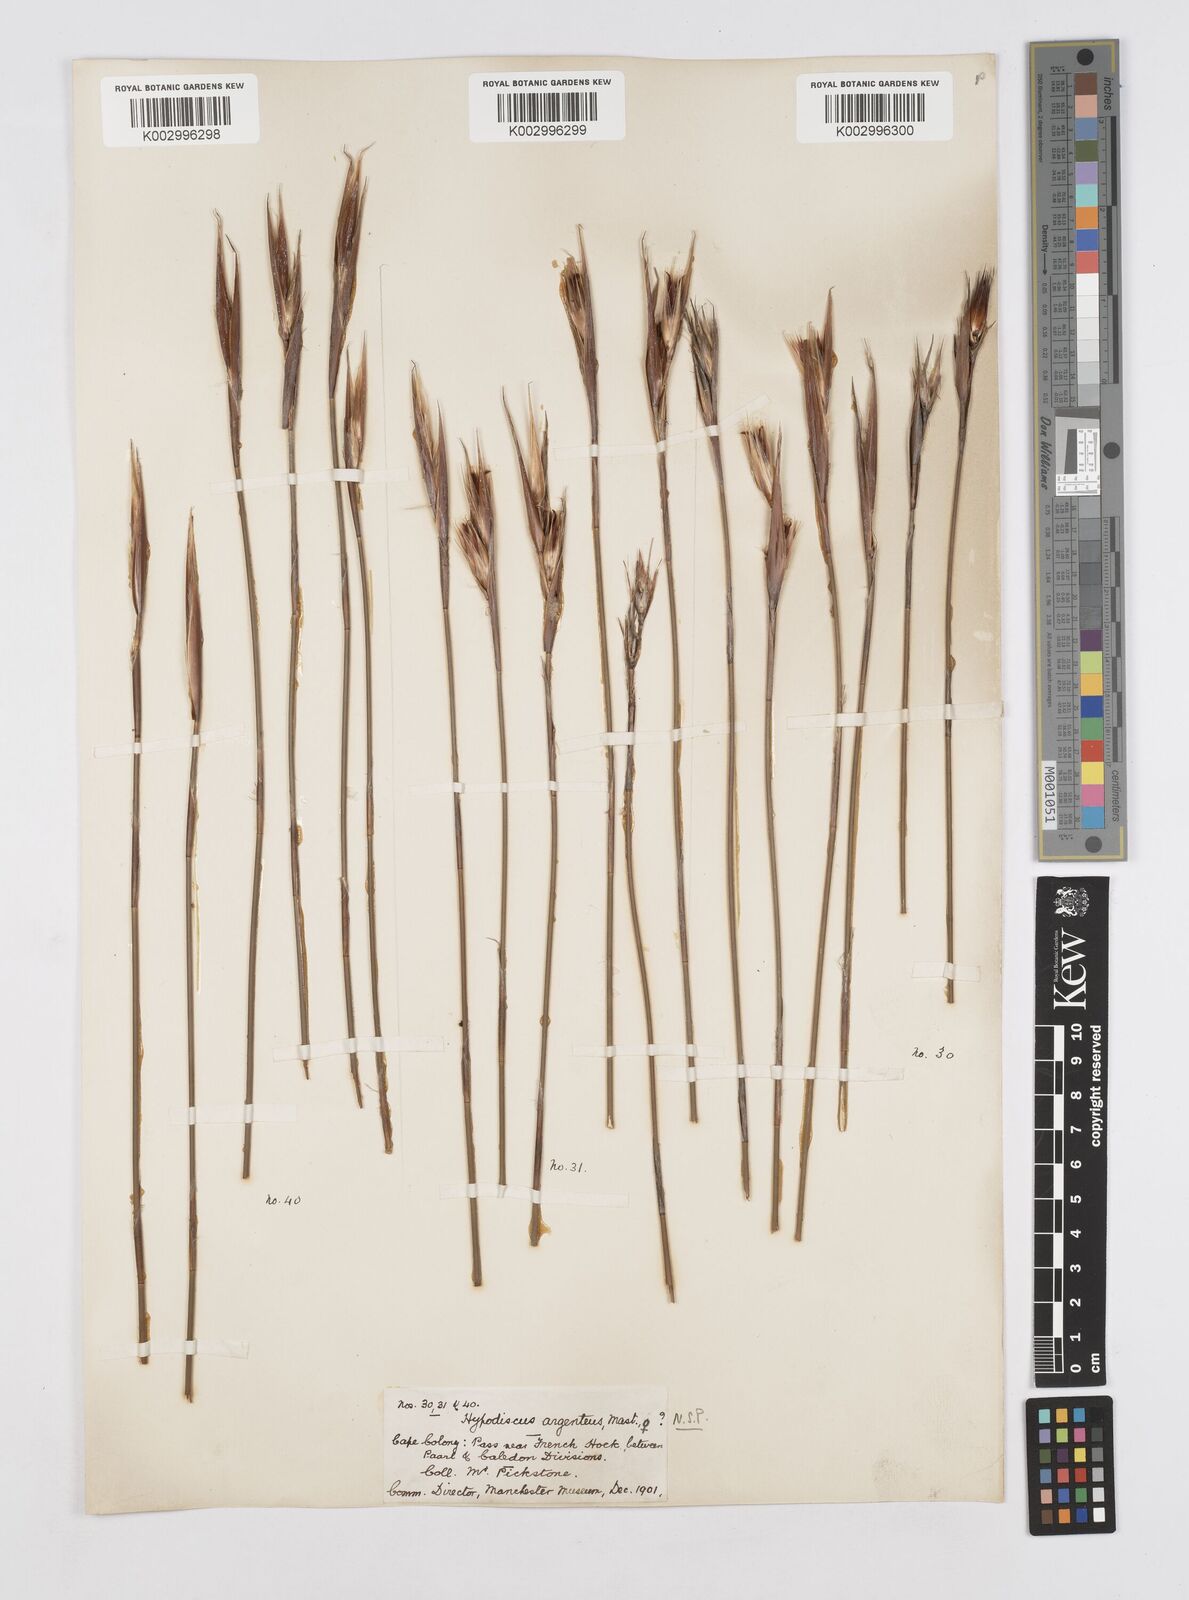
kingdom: Plantae
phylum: Tracheophyta
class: Liliopsida
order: Poales
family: Restionaceae
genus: Hypodiscus
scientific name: Hypodiscus argenteus
